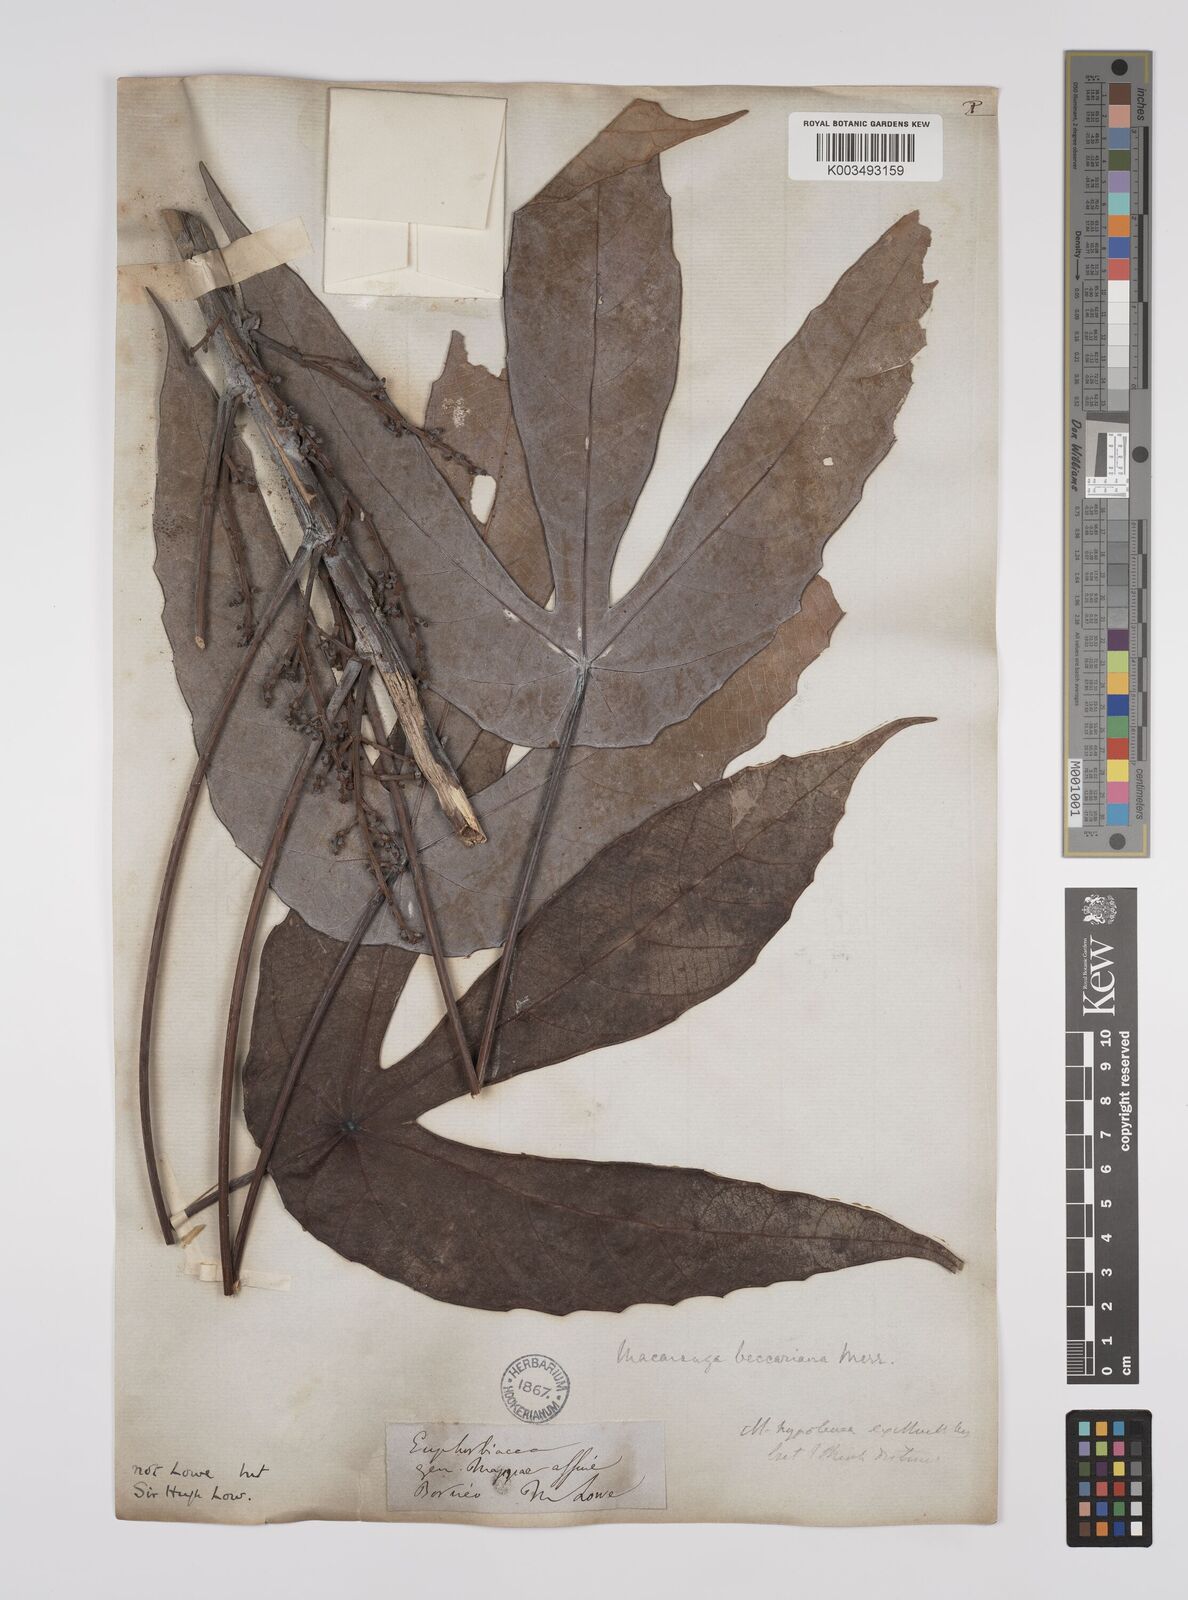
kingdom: Plantae
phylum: Tracheophyta
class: Magnoliopsida
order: Malpighiales
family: Euphorbiaceae
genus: Macaranga
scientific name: Macaranga beccariana
